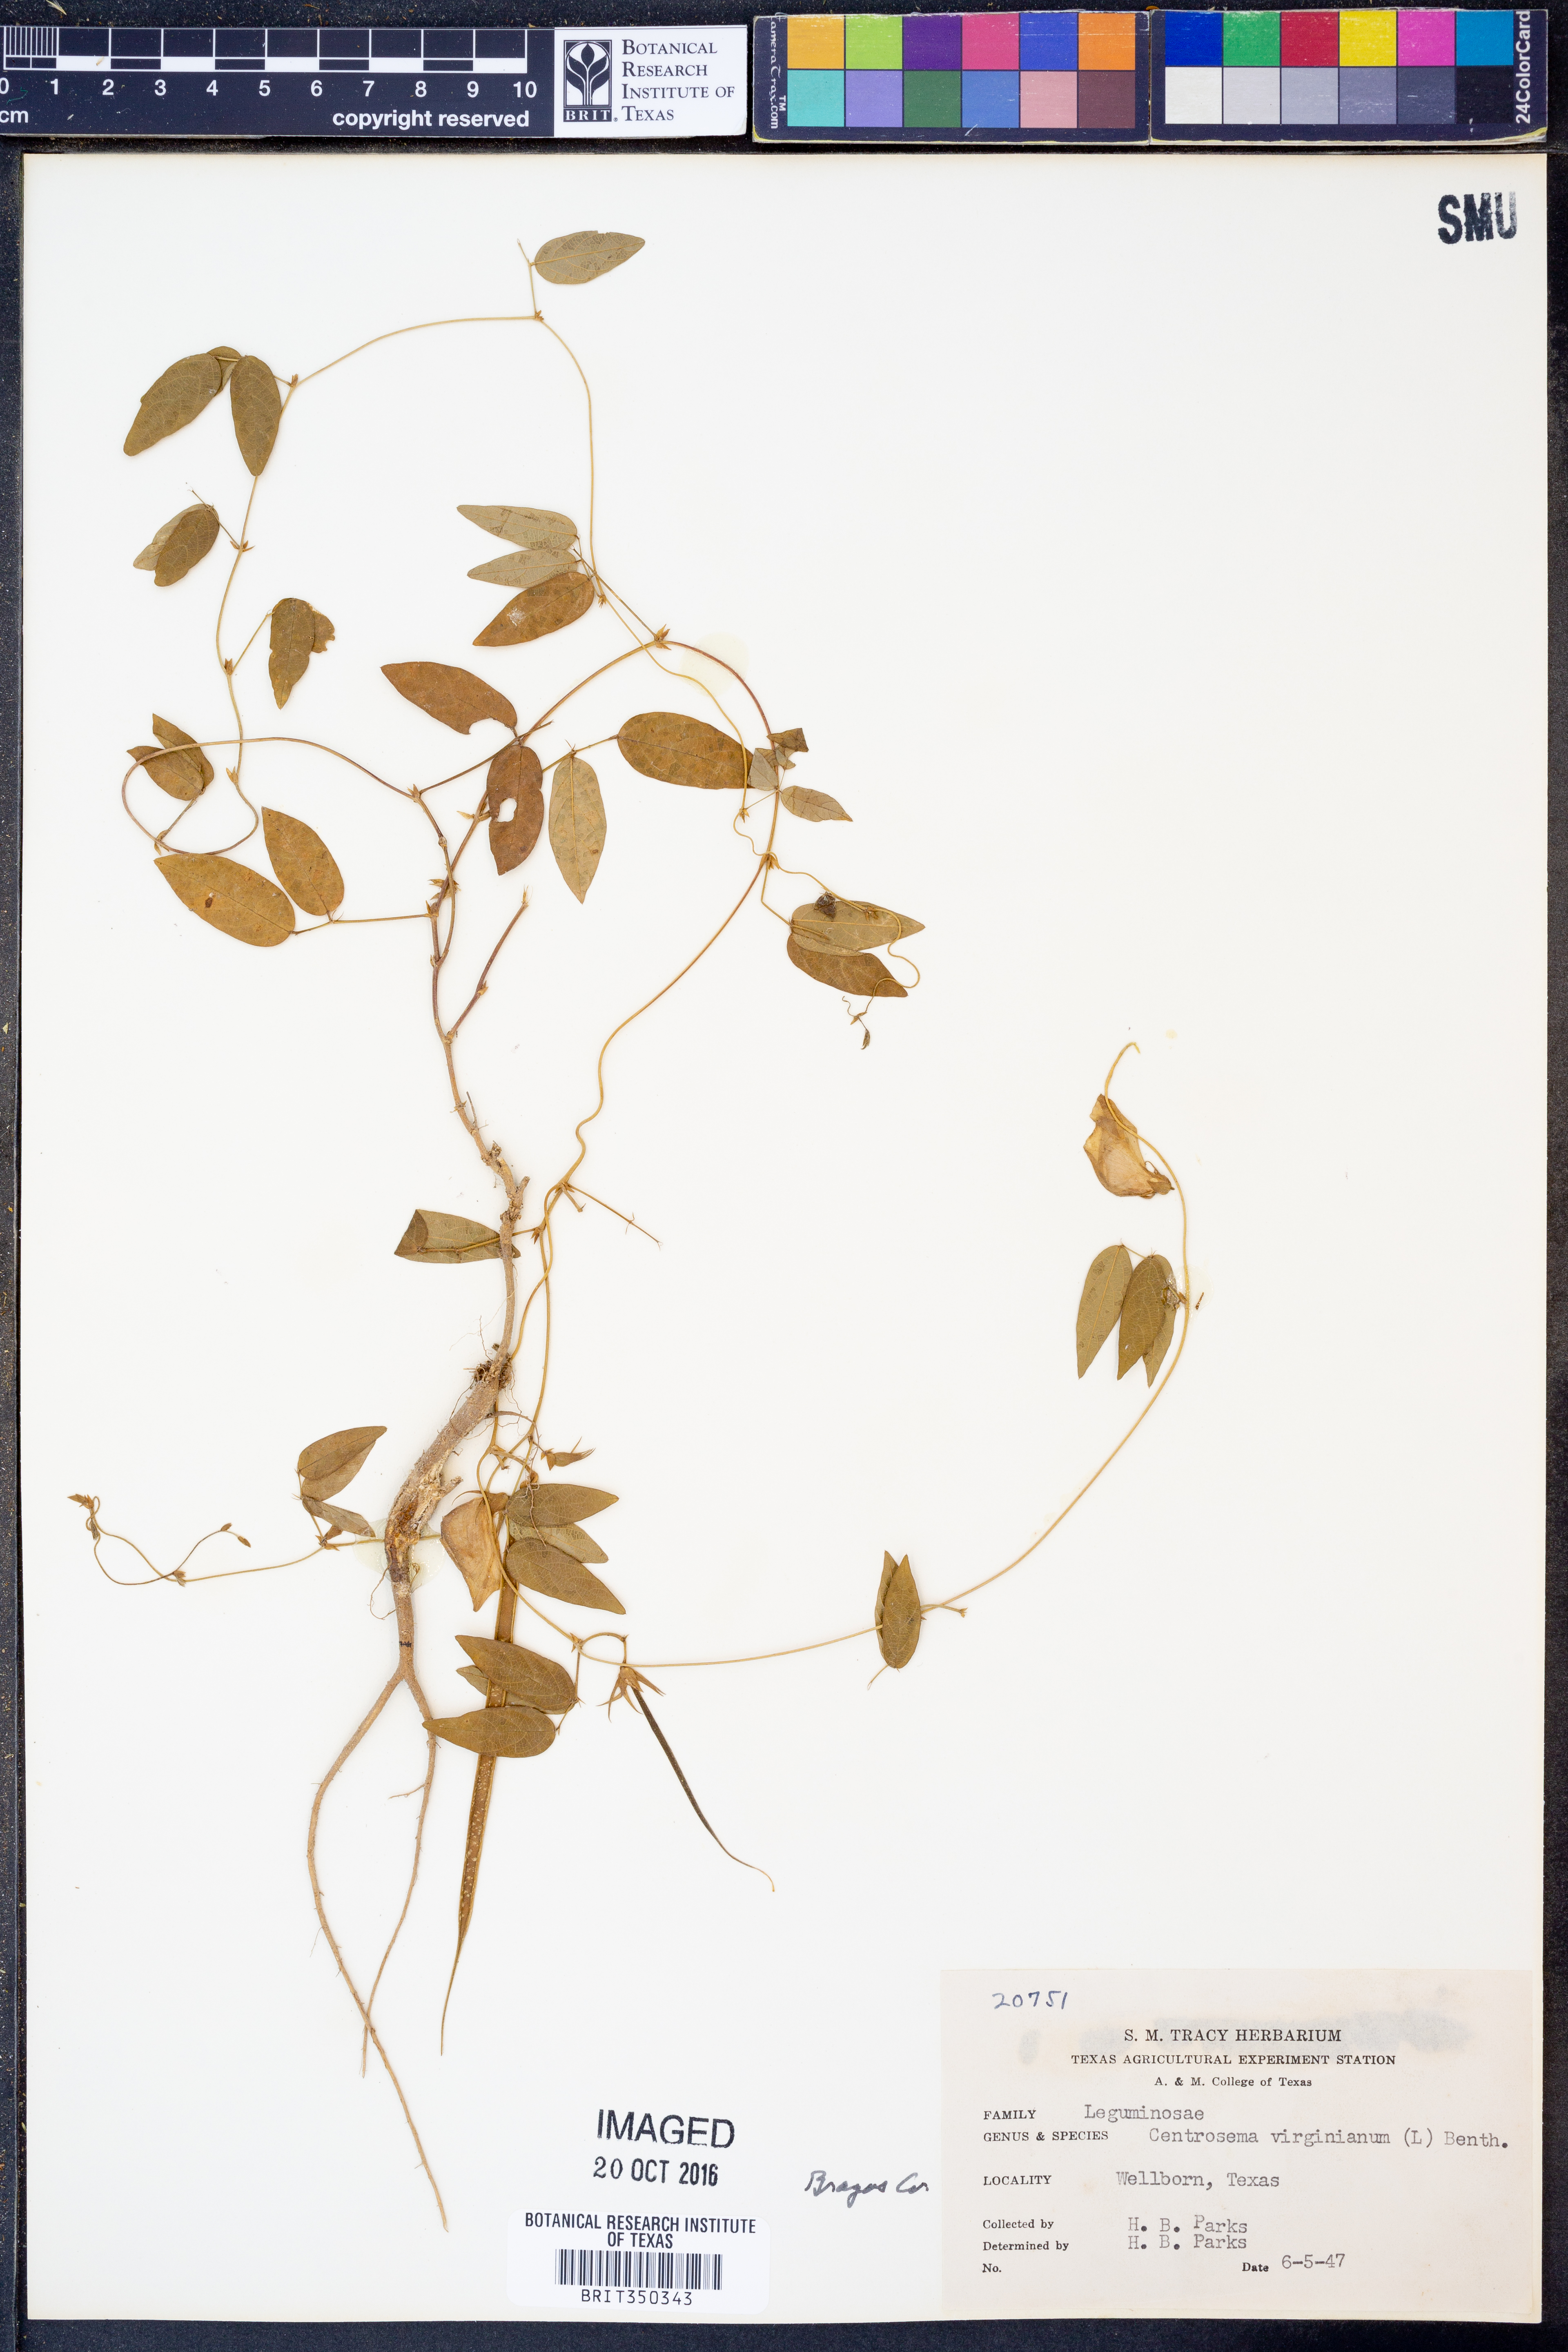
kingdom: Plantae
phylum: Tracheophyta
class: Magnoliopsida
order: Fabales
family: Fabaceae
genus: Centrosema
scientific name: Centrosema virginianum
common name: Butterfly-pea
